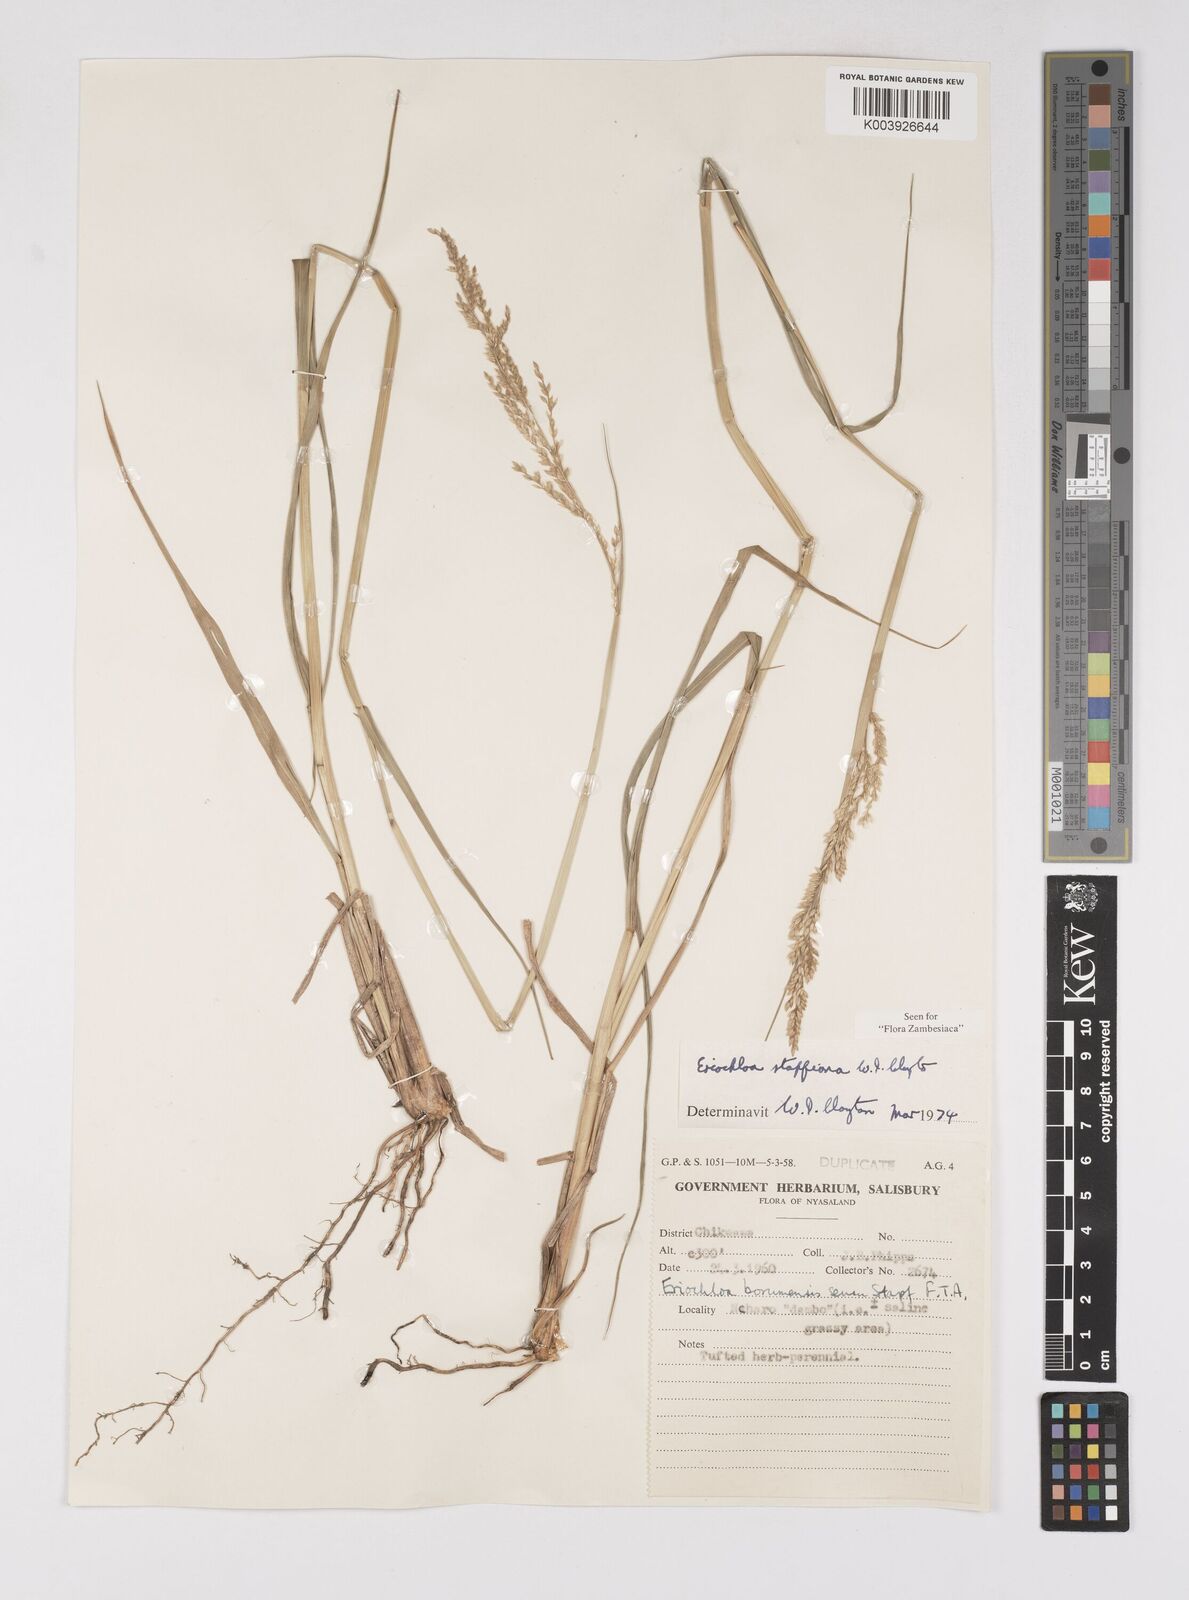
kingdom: Plantae
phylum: Tracheophyta
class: Liliopsida
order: Poales
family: Poaceae
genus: Eriochloa
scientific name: Eriochloa stapfiana
